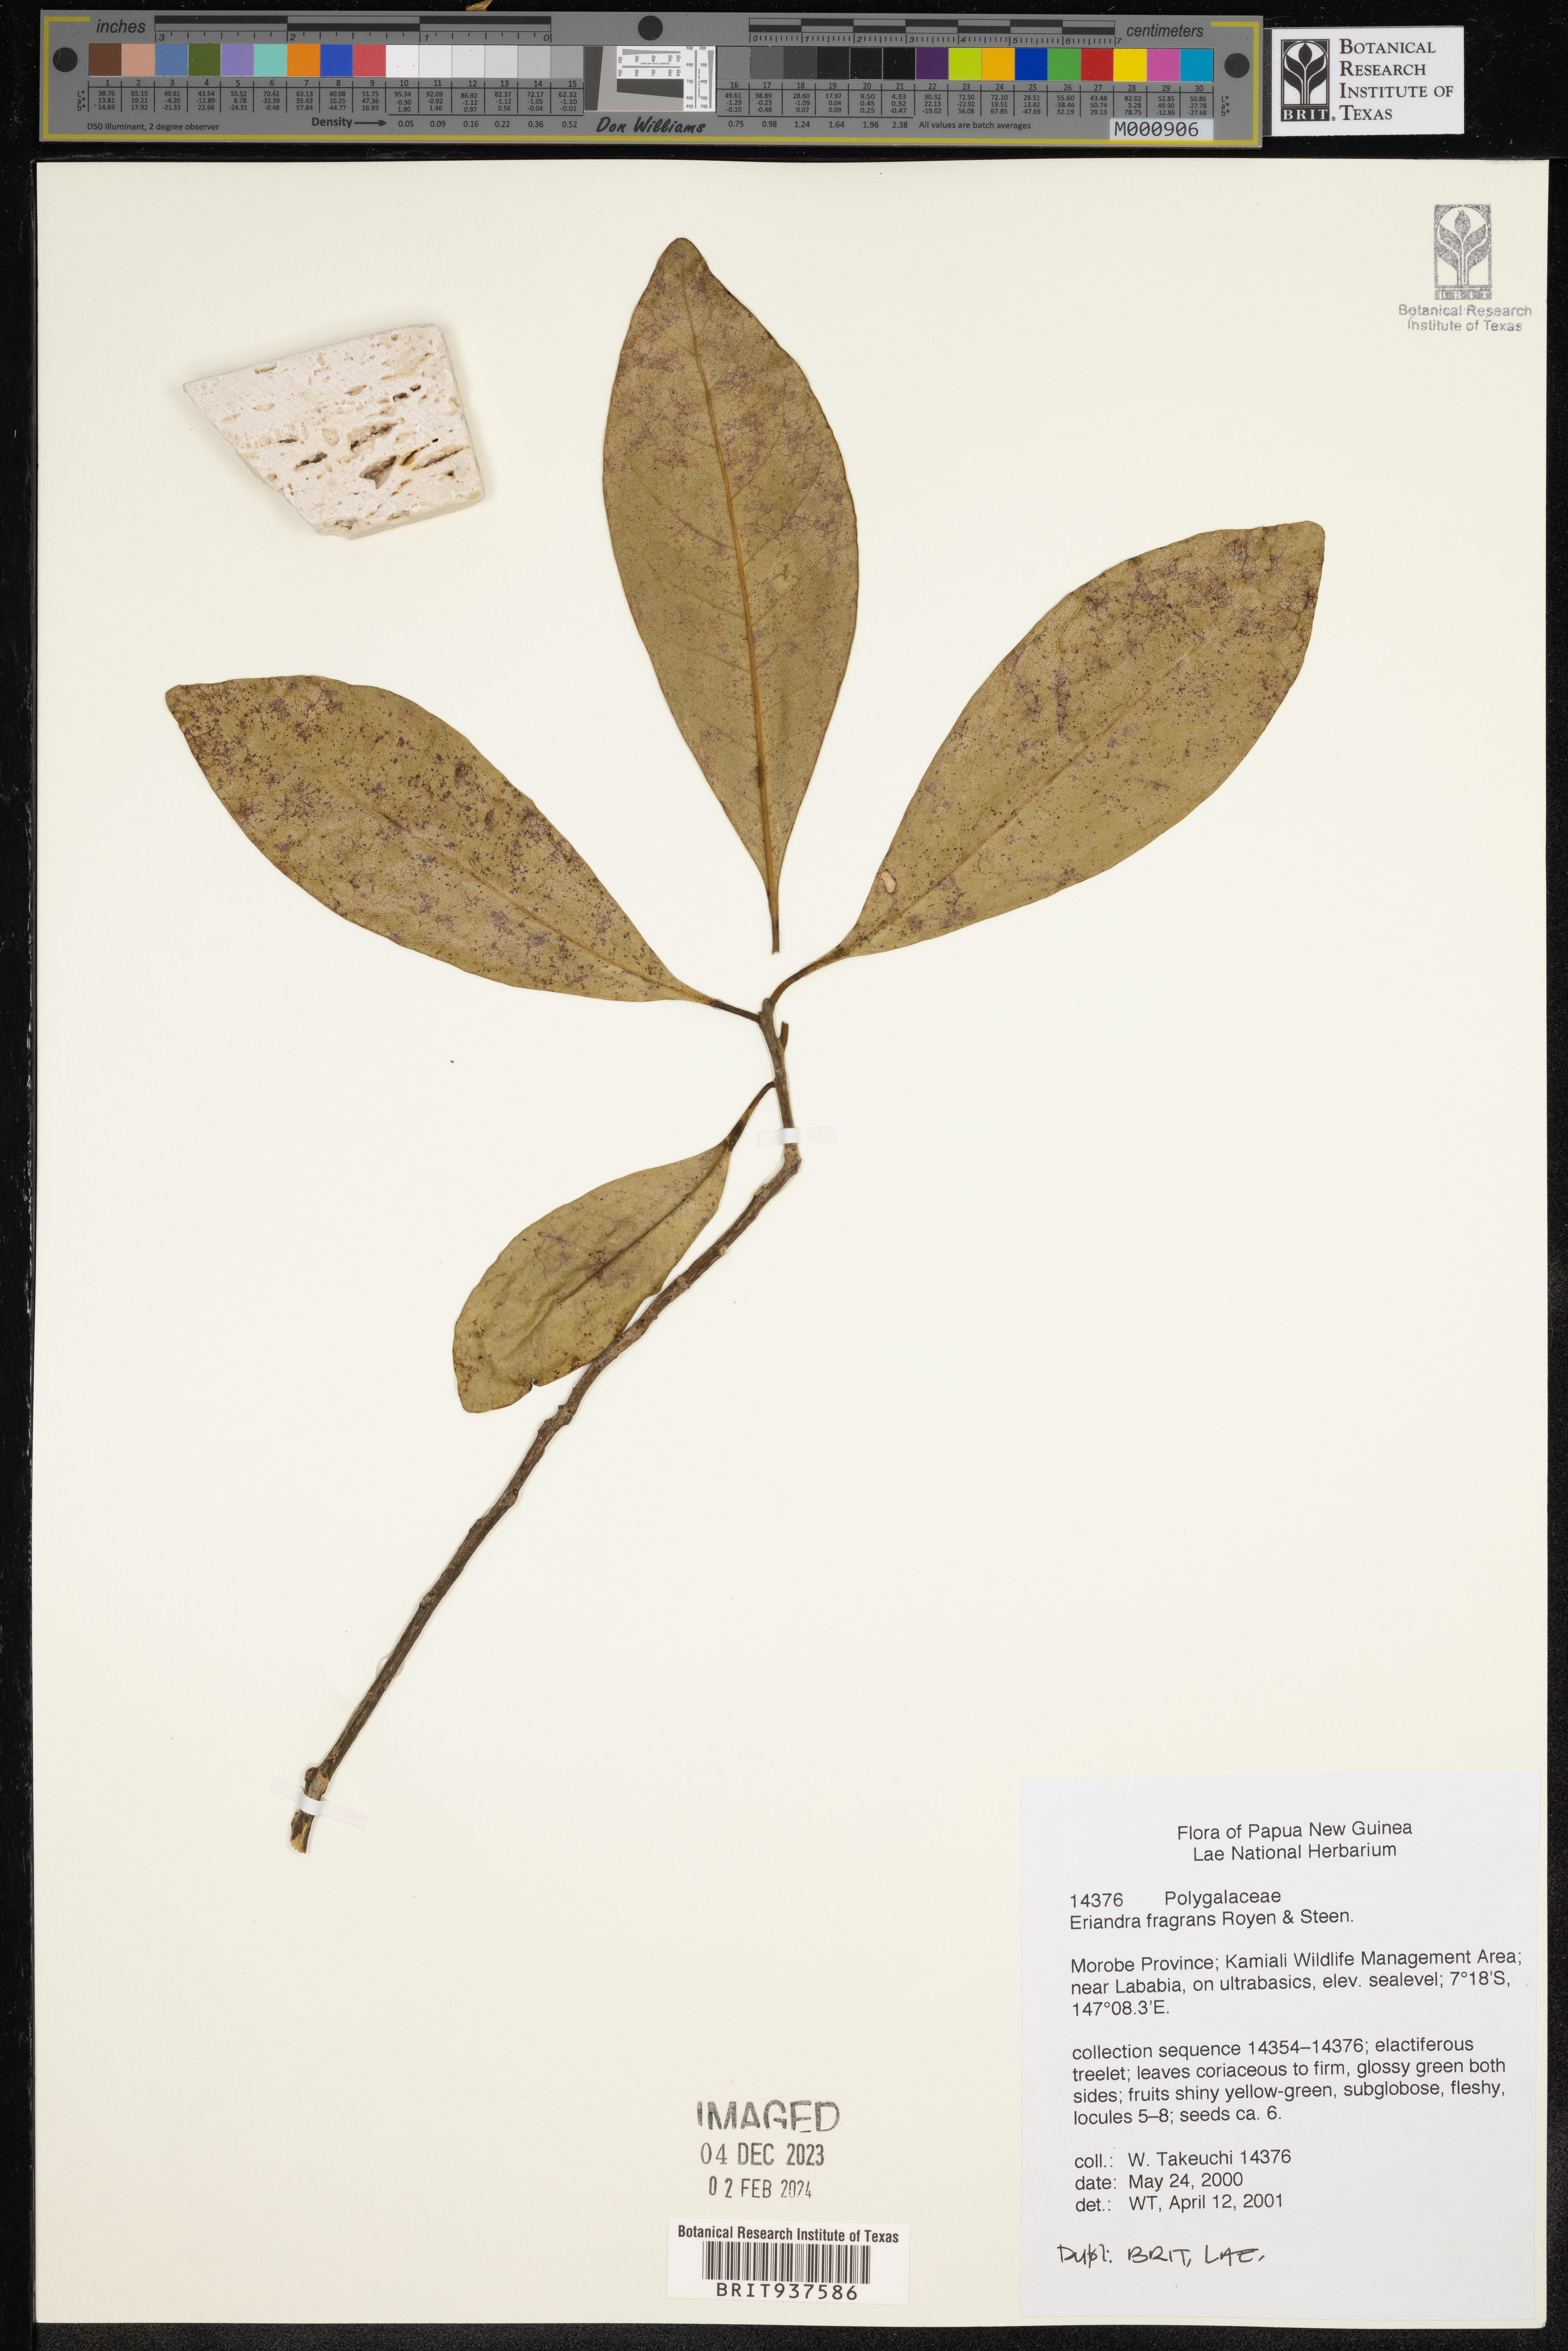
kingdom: Plantae
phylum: Tracheophyta
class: Magnoliopsida
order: Fabales
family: Polygalaceae
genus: Eriandra
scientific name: Eriandra
